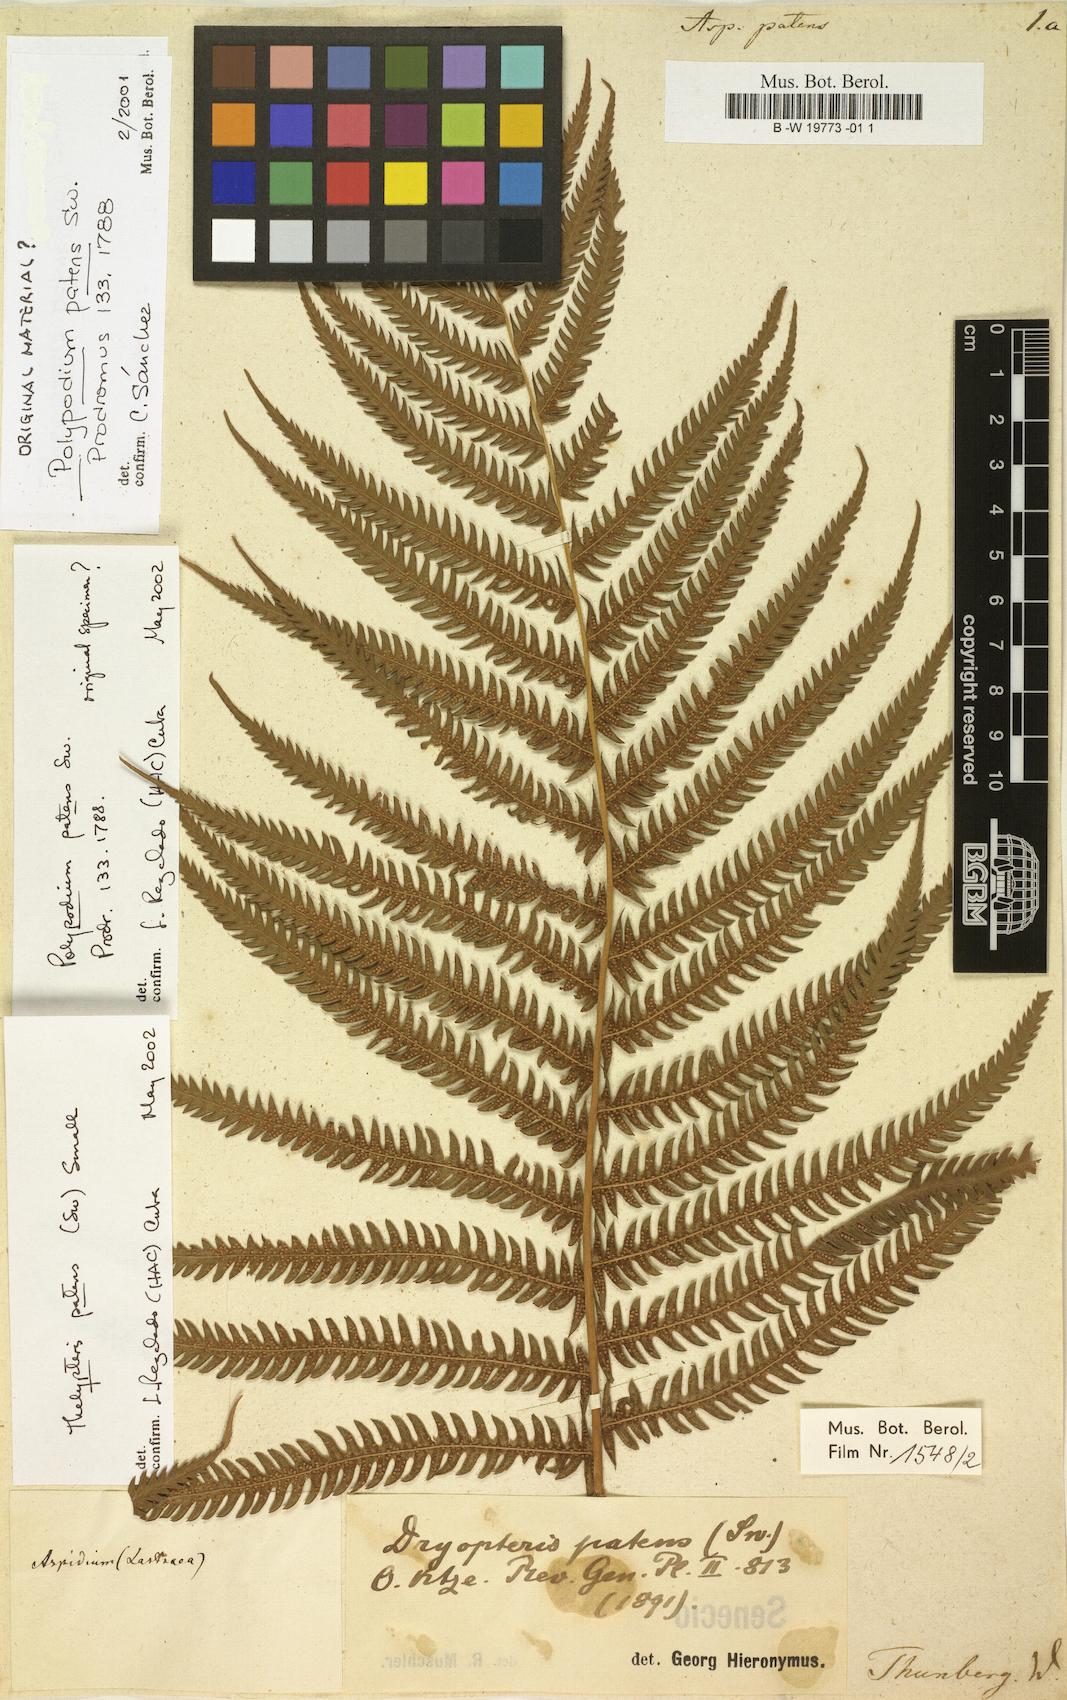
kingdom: Plantae
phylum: Tracheophyta
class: Polypodiopsida
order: Polypodiales
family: Thelypteridaceae
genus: Christella
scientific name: Christella parasitica
